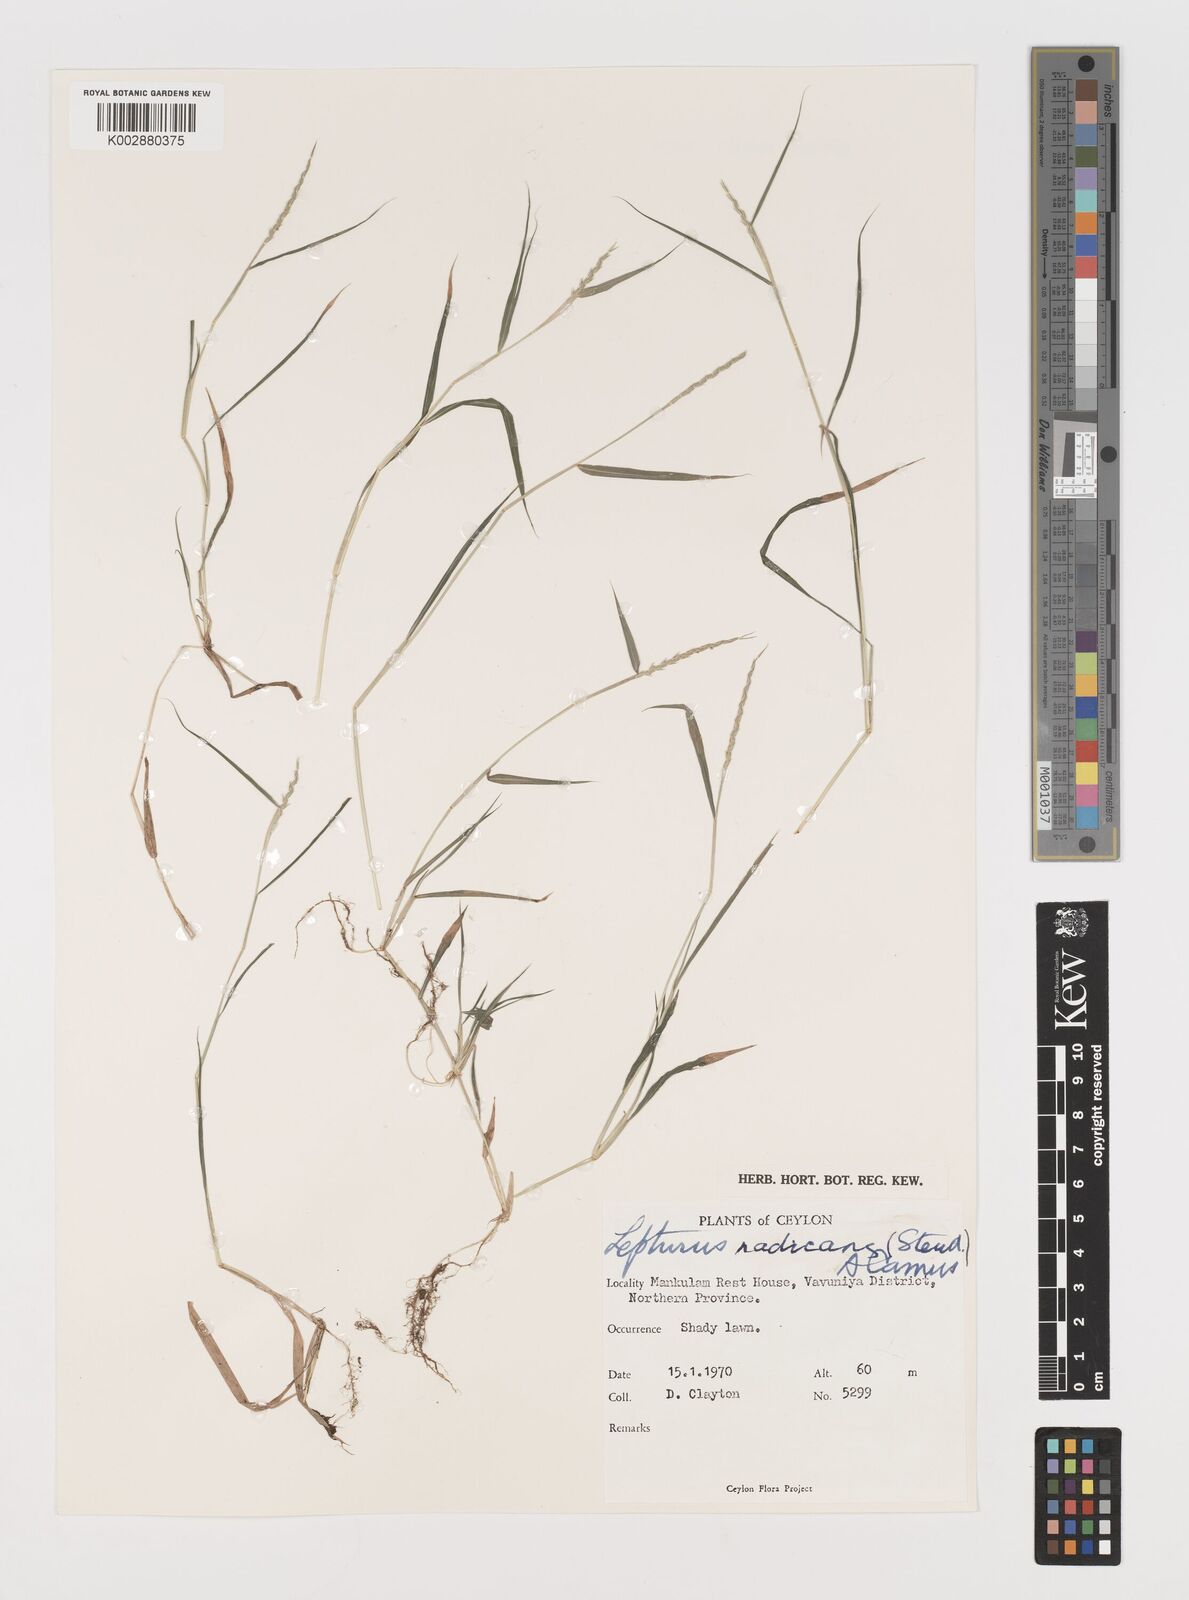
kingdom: Plantae
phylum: Tracheophyta
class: Liliopsida
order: Poales
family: Poaceae
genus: Lepturus
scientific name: Lepturus radicans
